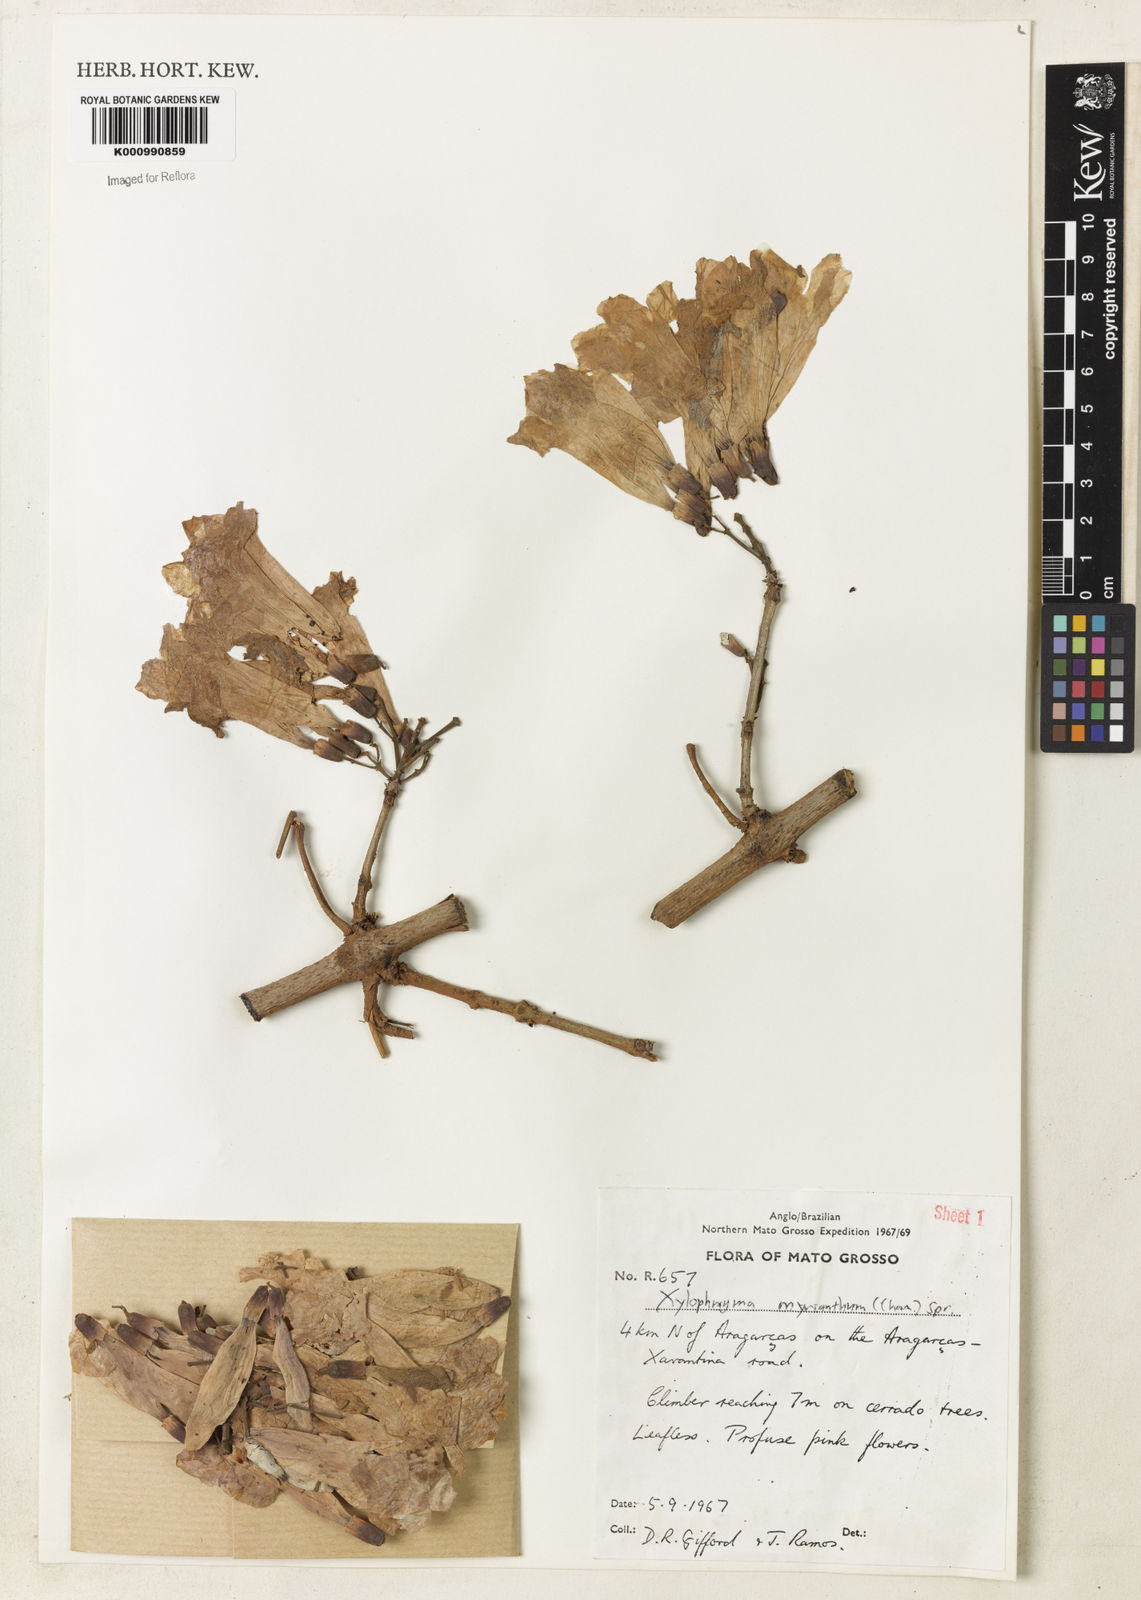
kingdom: Plantae
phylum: Tracheophyta
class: Magnoliopsida
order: Lamiales
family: Bignoniaceae
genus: Xylophragma
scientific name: Xylophragma myrianthum
